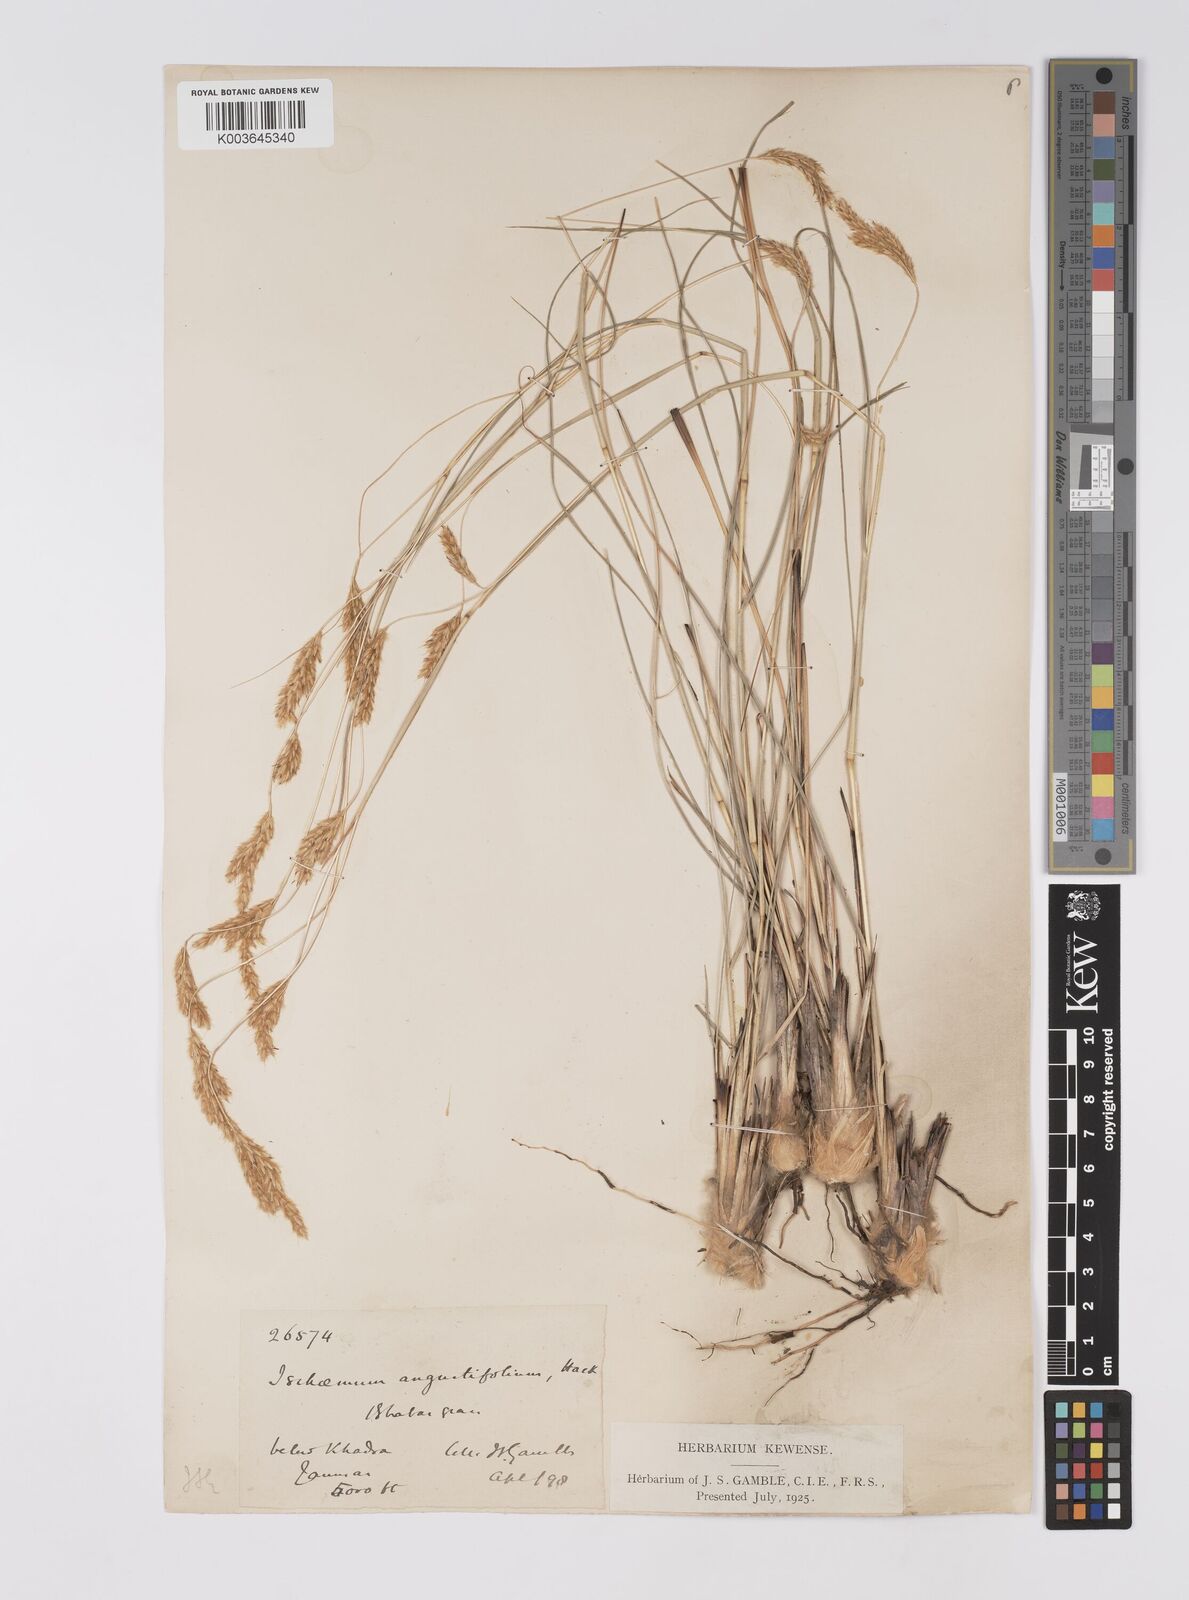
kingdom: Plantae
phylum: Tracheophyta
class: Liliopsida
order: Poales
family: Poaceae
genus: Eulaliopsis
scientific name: Eulaliopsis binata
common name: Baib grass
